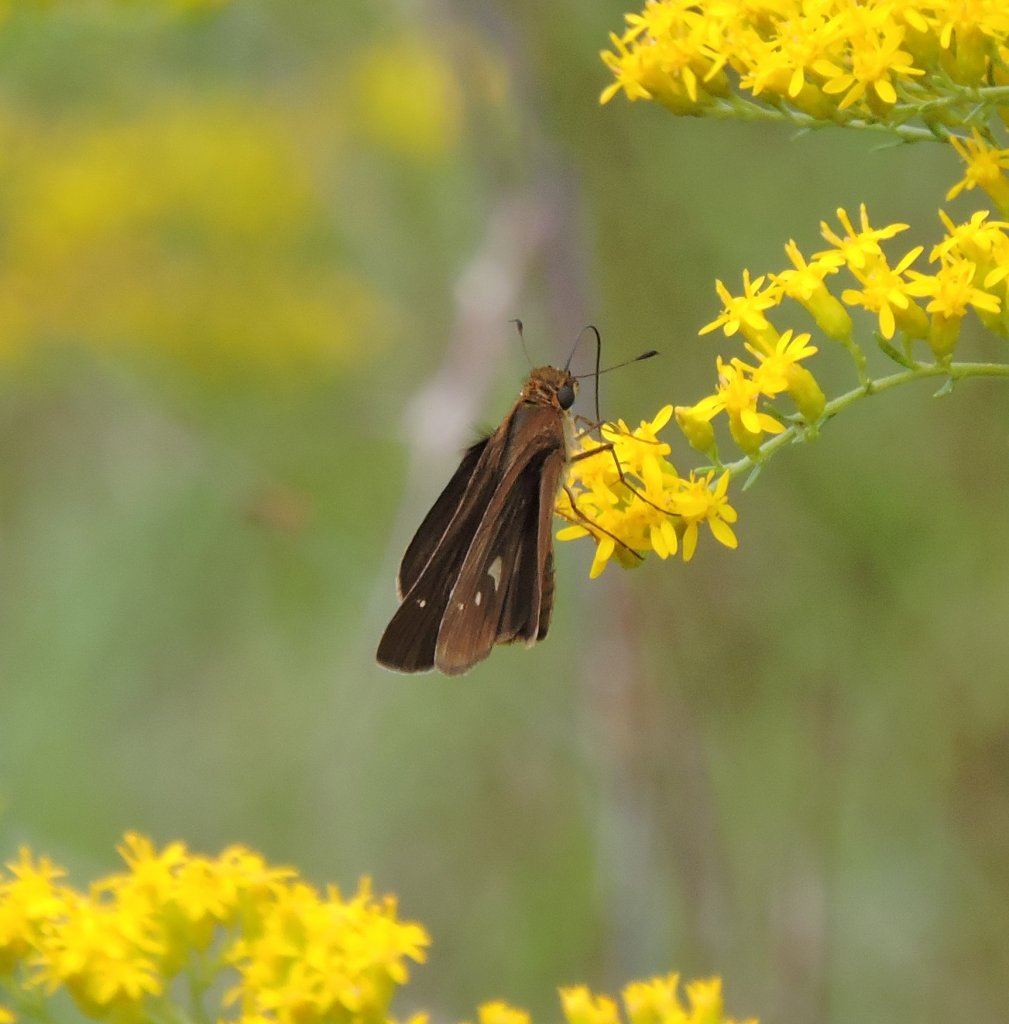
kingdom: Animalia
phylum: Arthropoda
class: Insecta
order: Lepidoptera
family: Hesperiidae
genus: Panoquina
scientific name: Panoquina ocola
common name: Ocola Skipper
